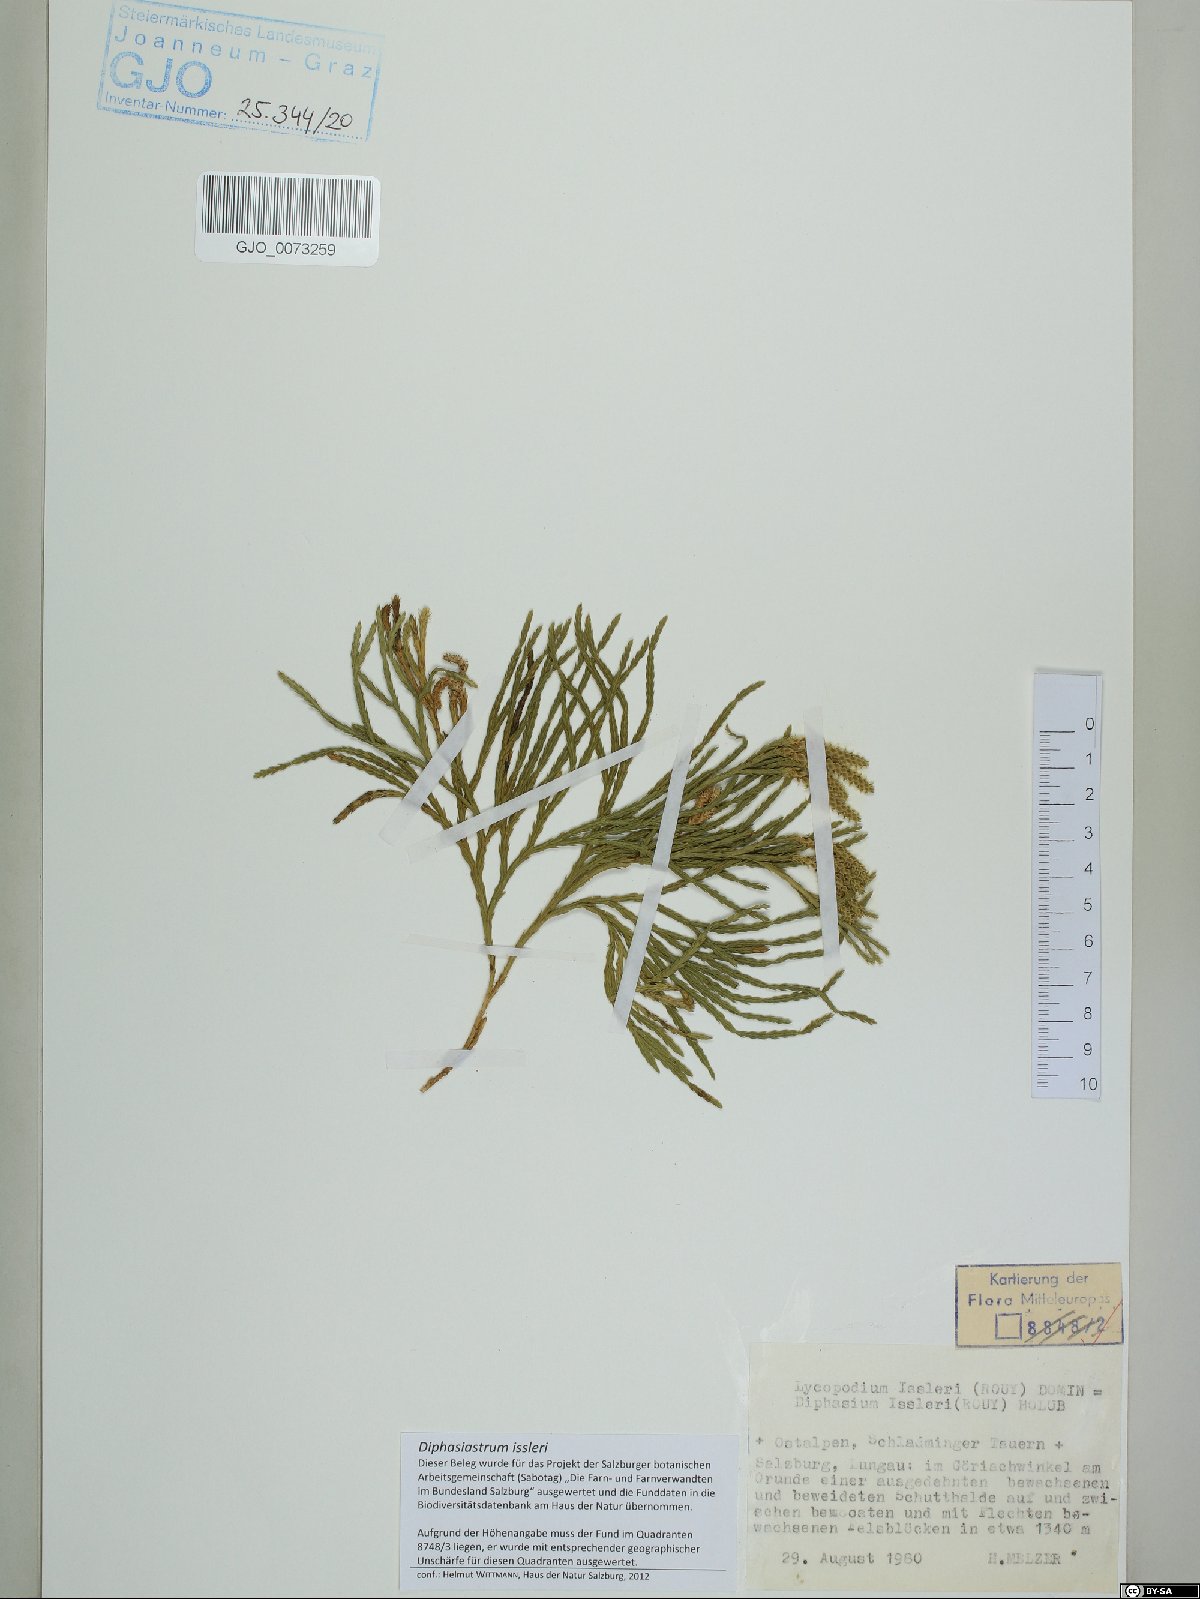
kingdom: Plantae
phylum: Tracheophyta
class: Lycopodiopsida
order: Lycopodiales
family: Lycopodiaceae
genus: Diphasiastrum
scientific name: Diphasiastrum issleri
